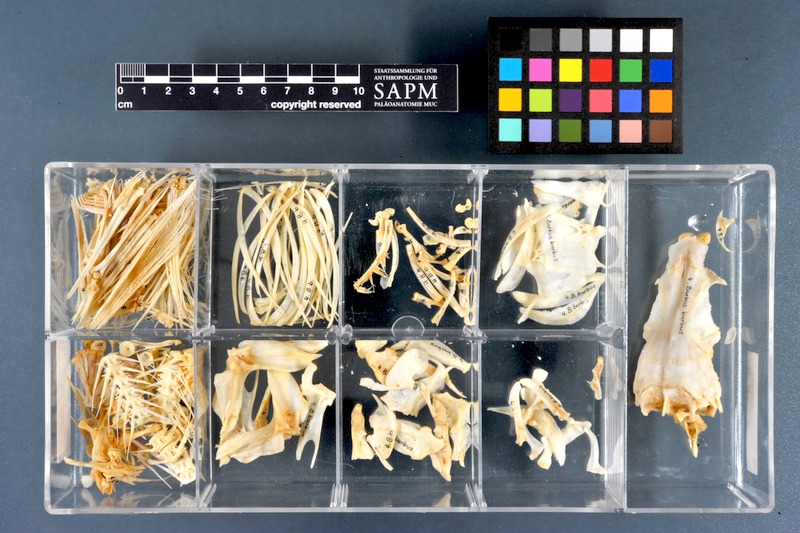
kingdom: Animalia
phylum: Chordata
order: Cypriniformes
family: Cyprinidae
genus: Barbus
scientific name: Barbus barbus
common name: Barbel
